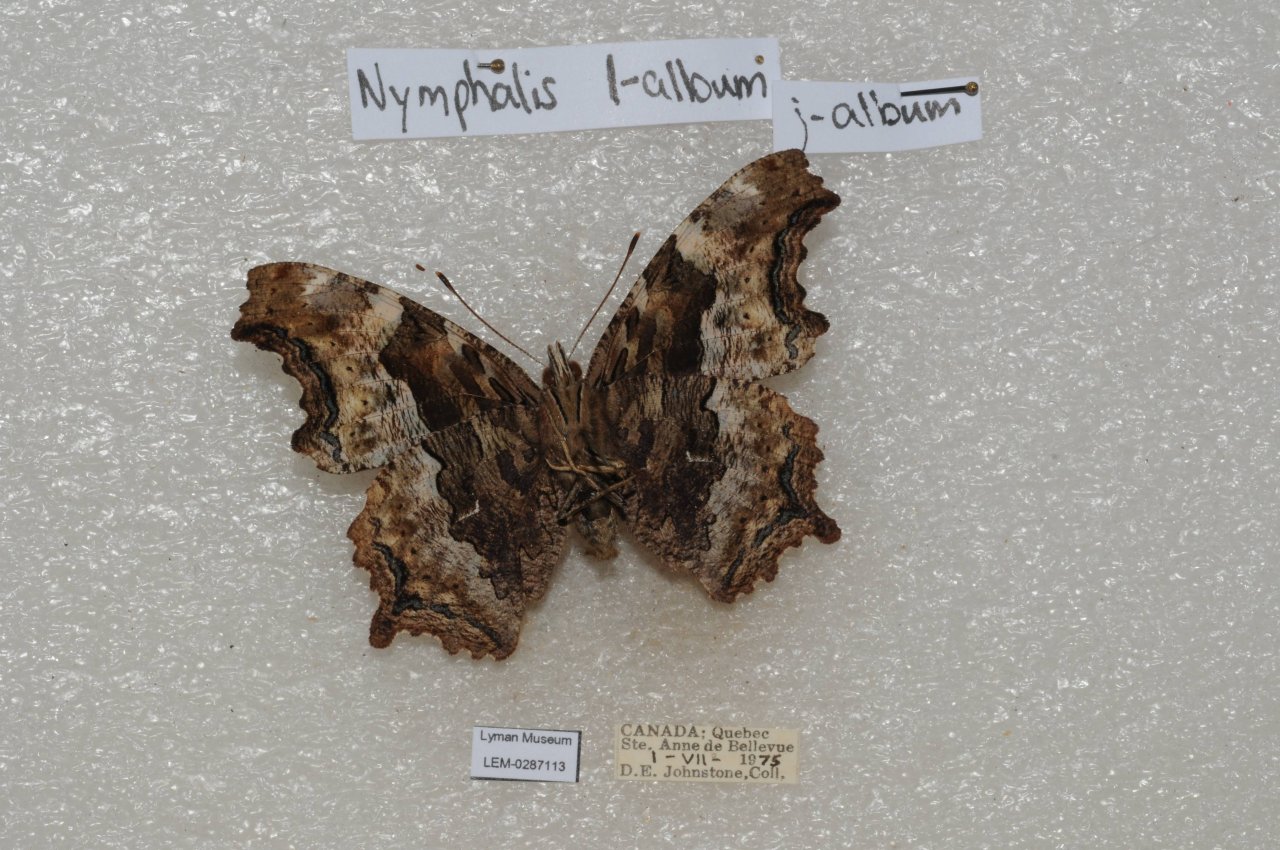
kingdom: Animalia
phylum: Arthropoda
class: Insecta
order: Lepidoptera
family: Nymphalidae
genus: Polygonia
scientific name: Polygonia vaualbum
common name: Compton Tortoiseshell
